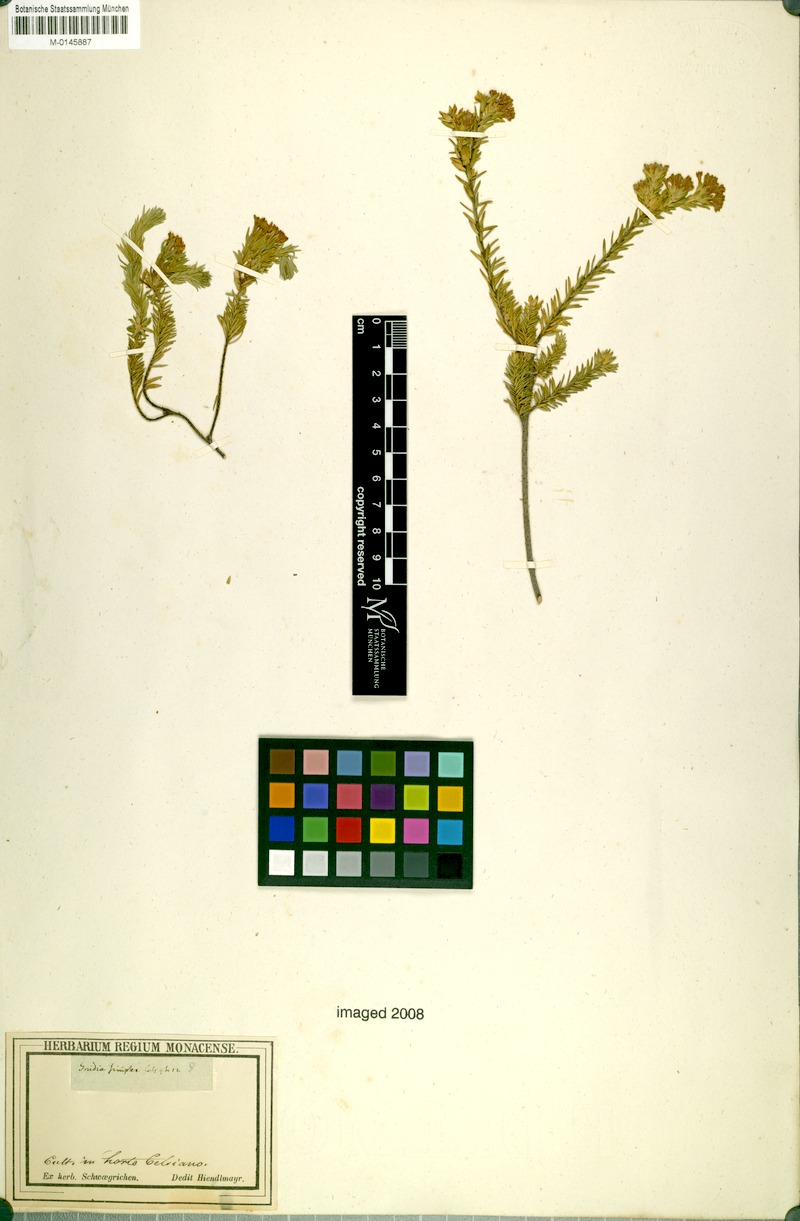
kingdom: Plantae
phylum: Tracheophyta
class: Magnoliopsida
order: Malvales
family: Thymelaeaceae
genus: Gnidia
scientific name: Gnidia simplex
